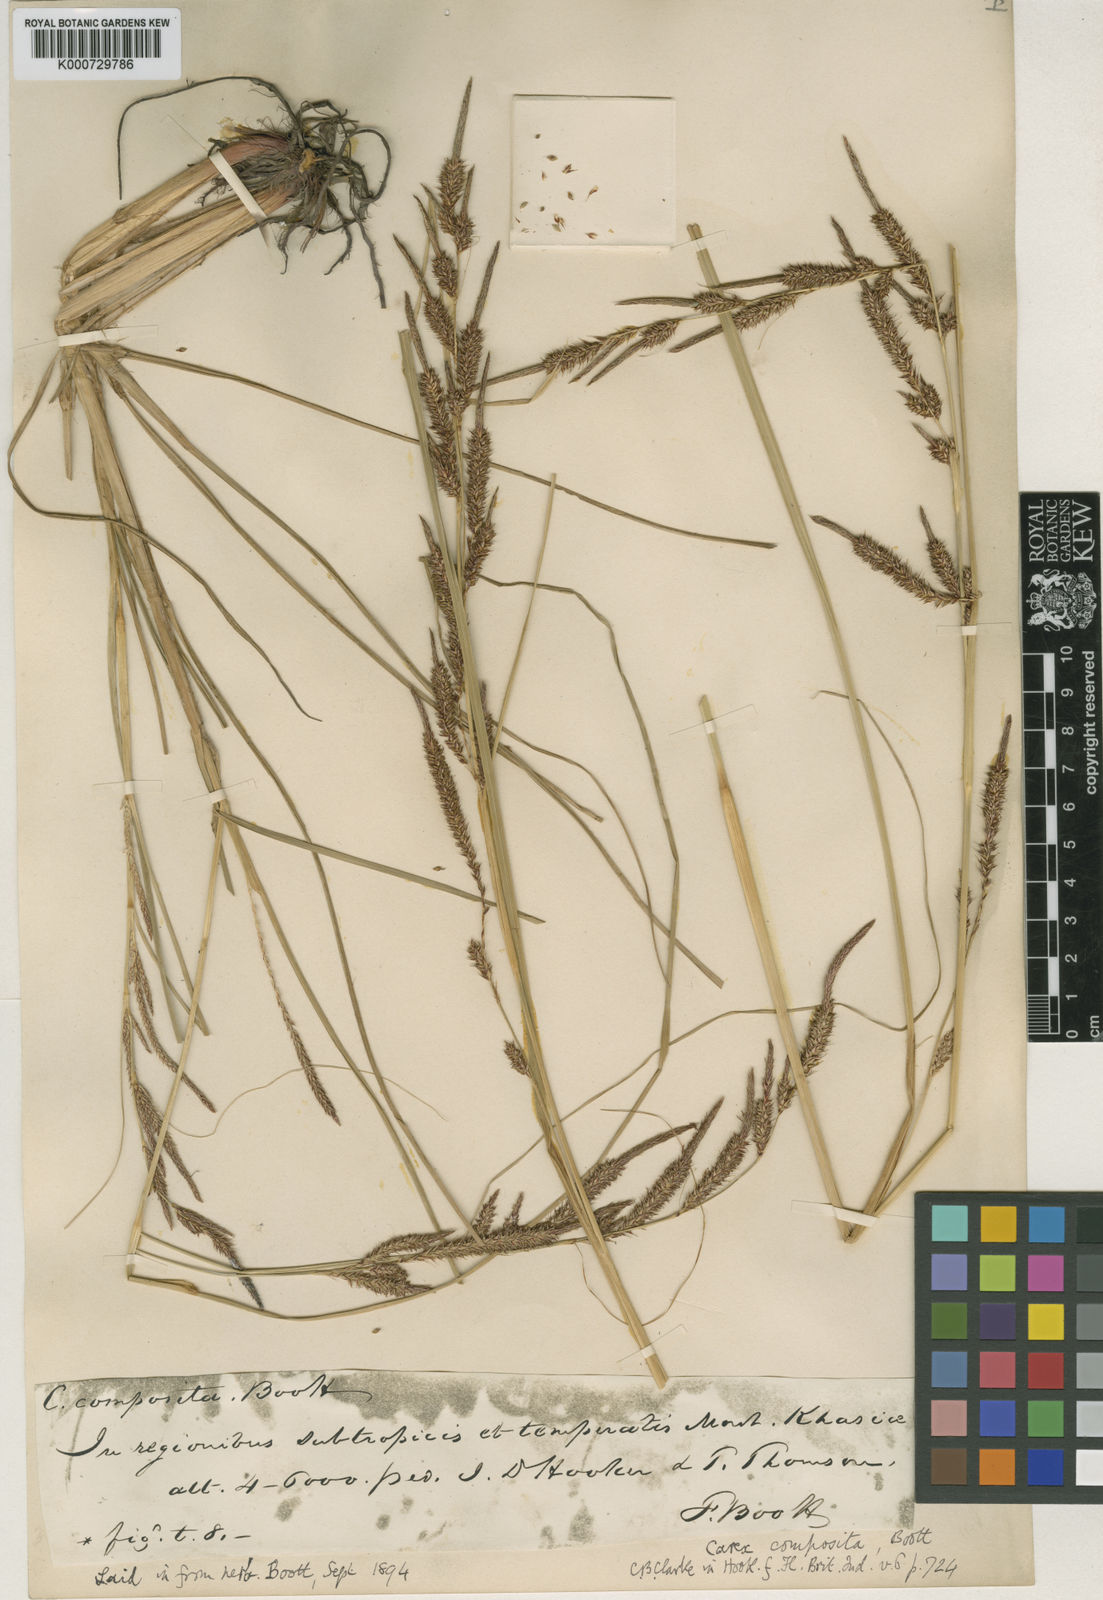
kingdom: Plantae
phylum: Tracheophyta
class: Liliopsida
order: Poales
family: Cyperaceae
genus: Carex
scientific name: Carex composita
